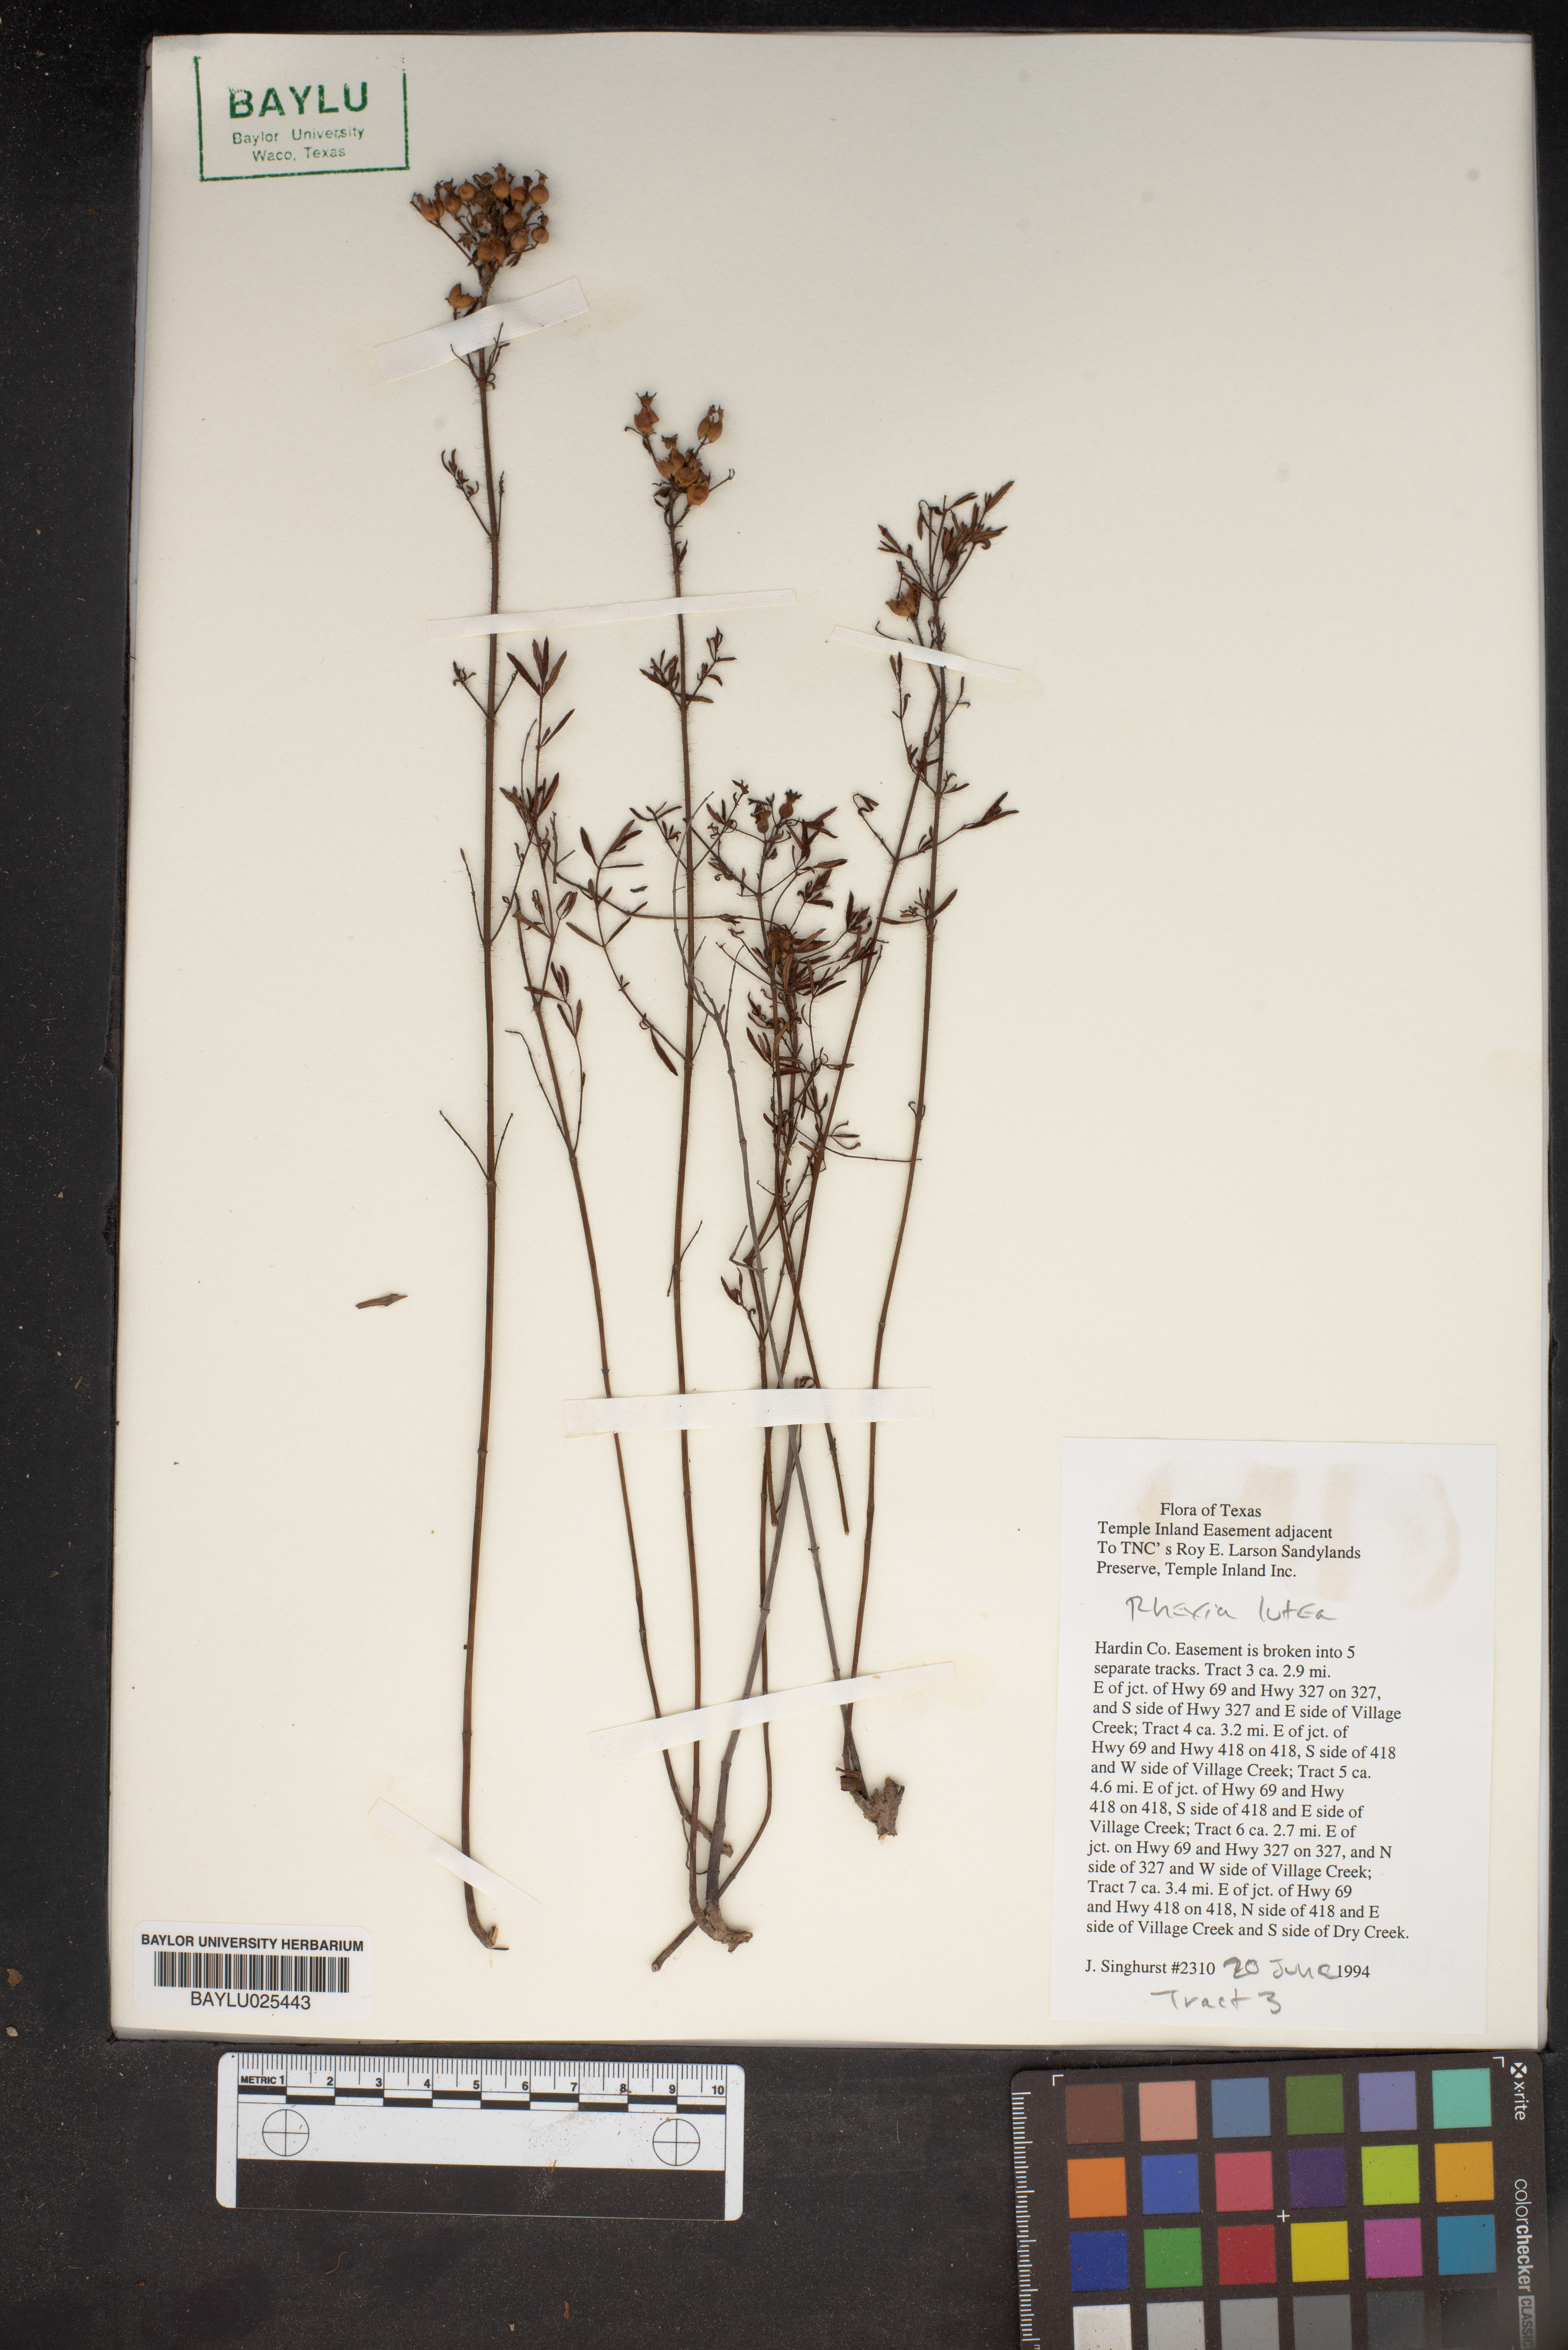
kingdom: Plantae
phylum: Tracheophyta
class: Magnoliopsida
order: Myrtales
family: Melastomataceae
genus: Rhexia
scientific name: Rhexia lutea
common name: Golden meadow-beauty
